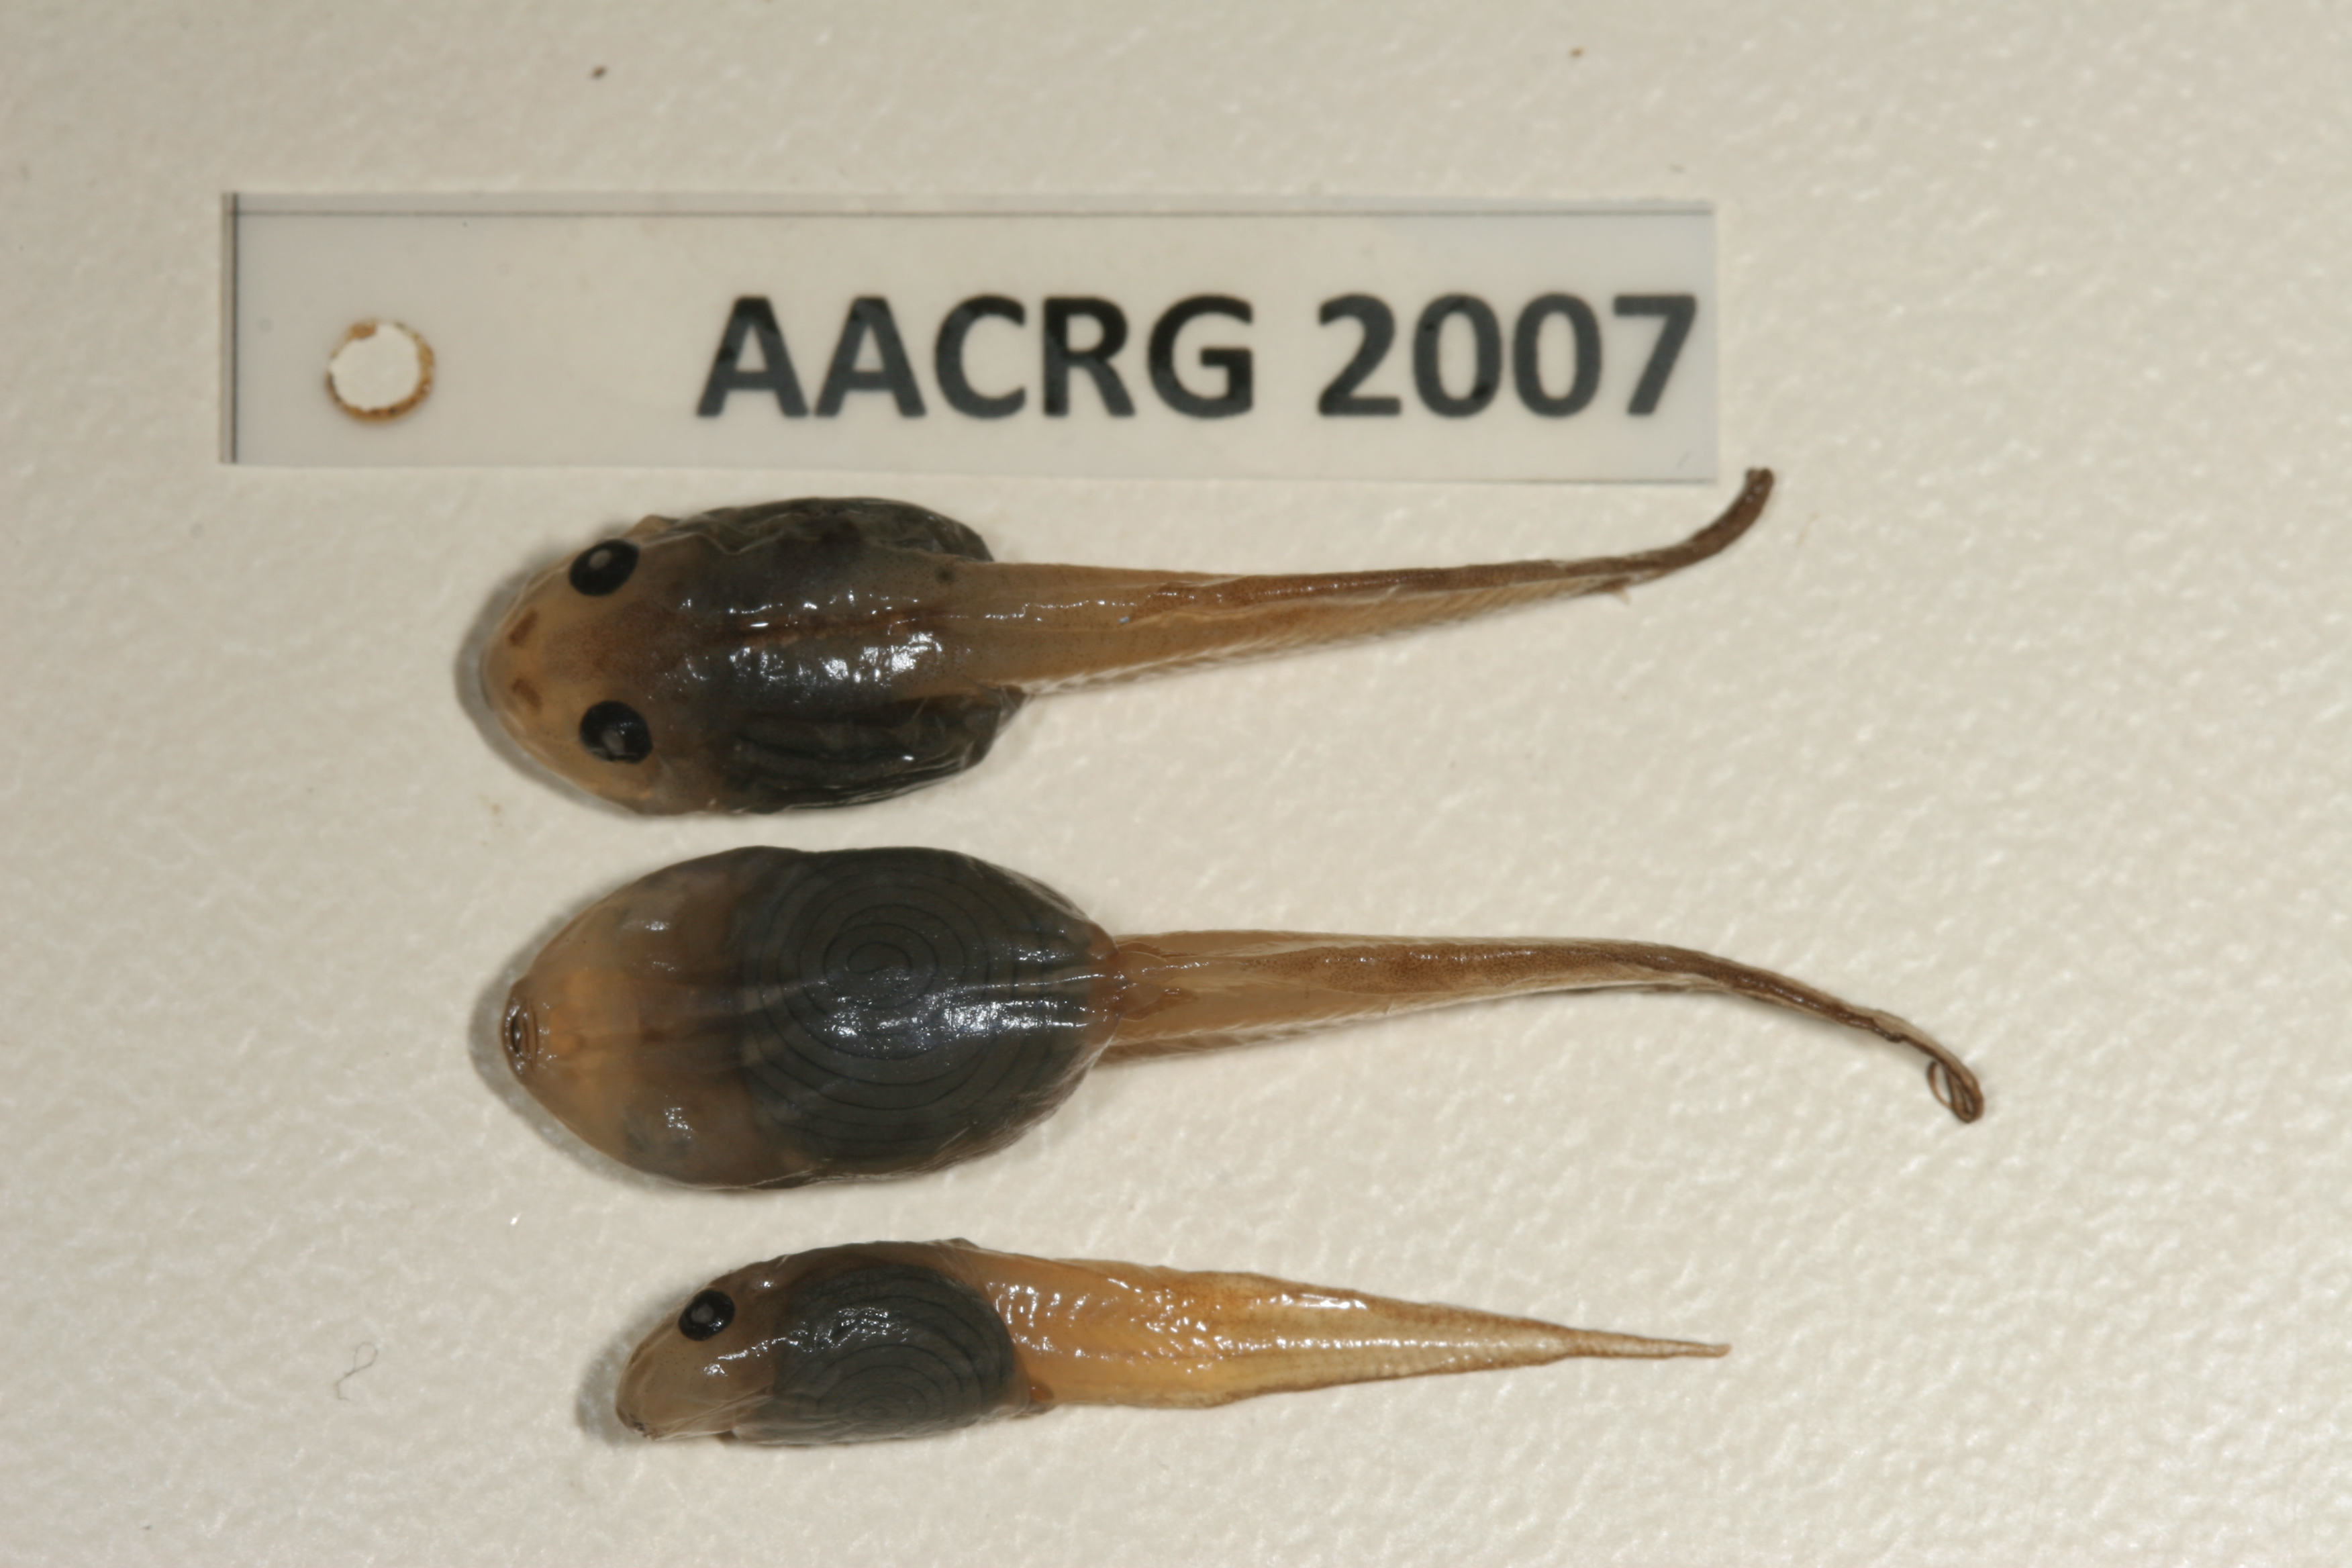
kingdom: Animalia
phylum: Chordata
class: Amphibia
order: Anura
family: Rhacophoridae
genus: Chiromantis
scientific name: Chiromantis xerampelina
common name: African gray treefrog
